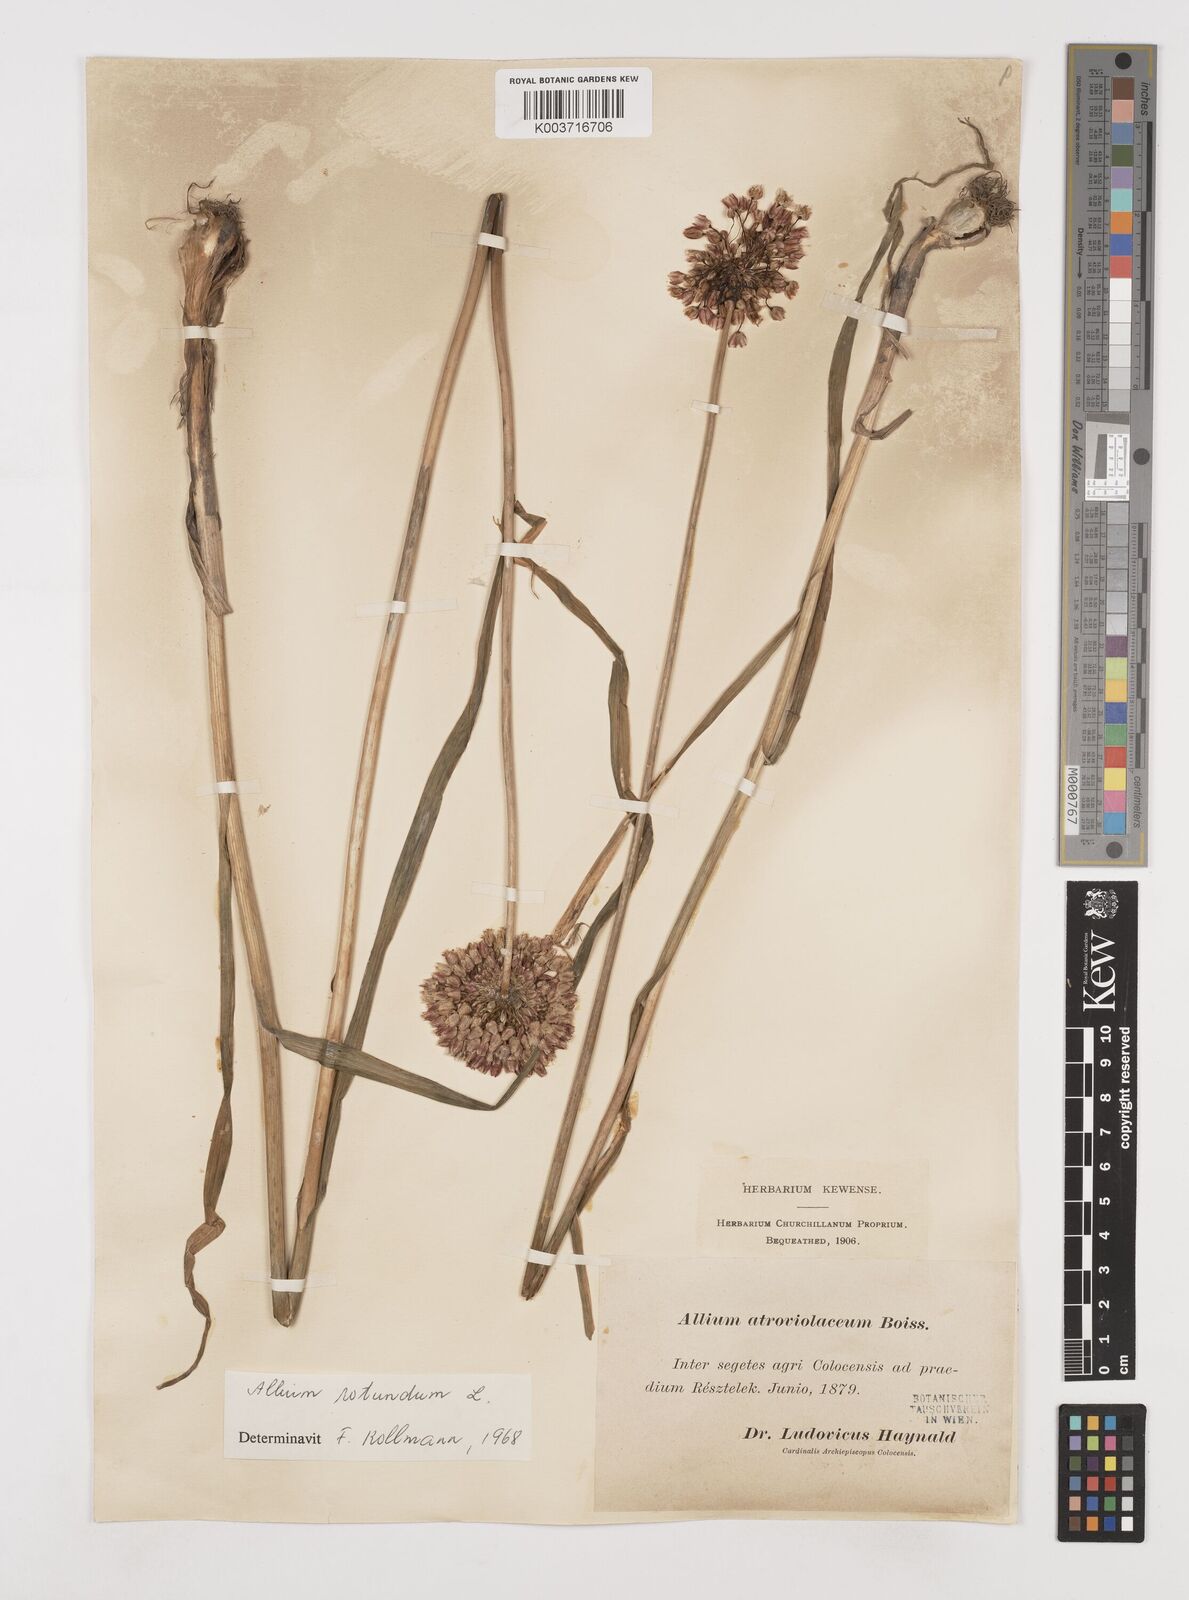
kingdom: Plantae
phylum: Tracheophyta
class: Liliopsida
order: Asparagales
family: Amaryllidaceae
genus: Allium
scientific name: Allium rotundum
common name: Sand leek
